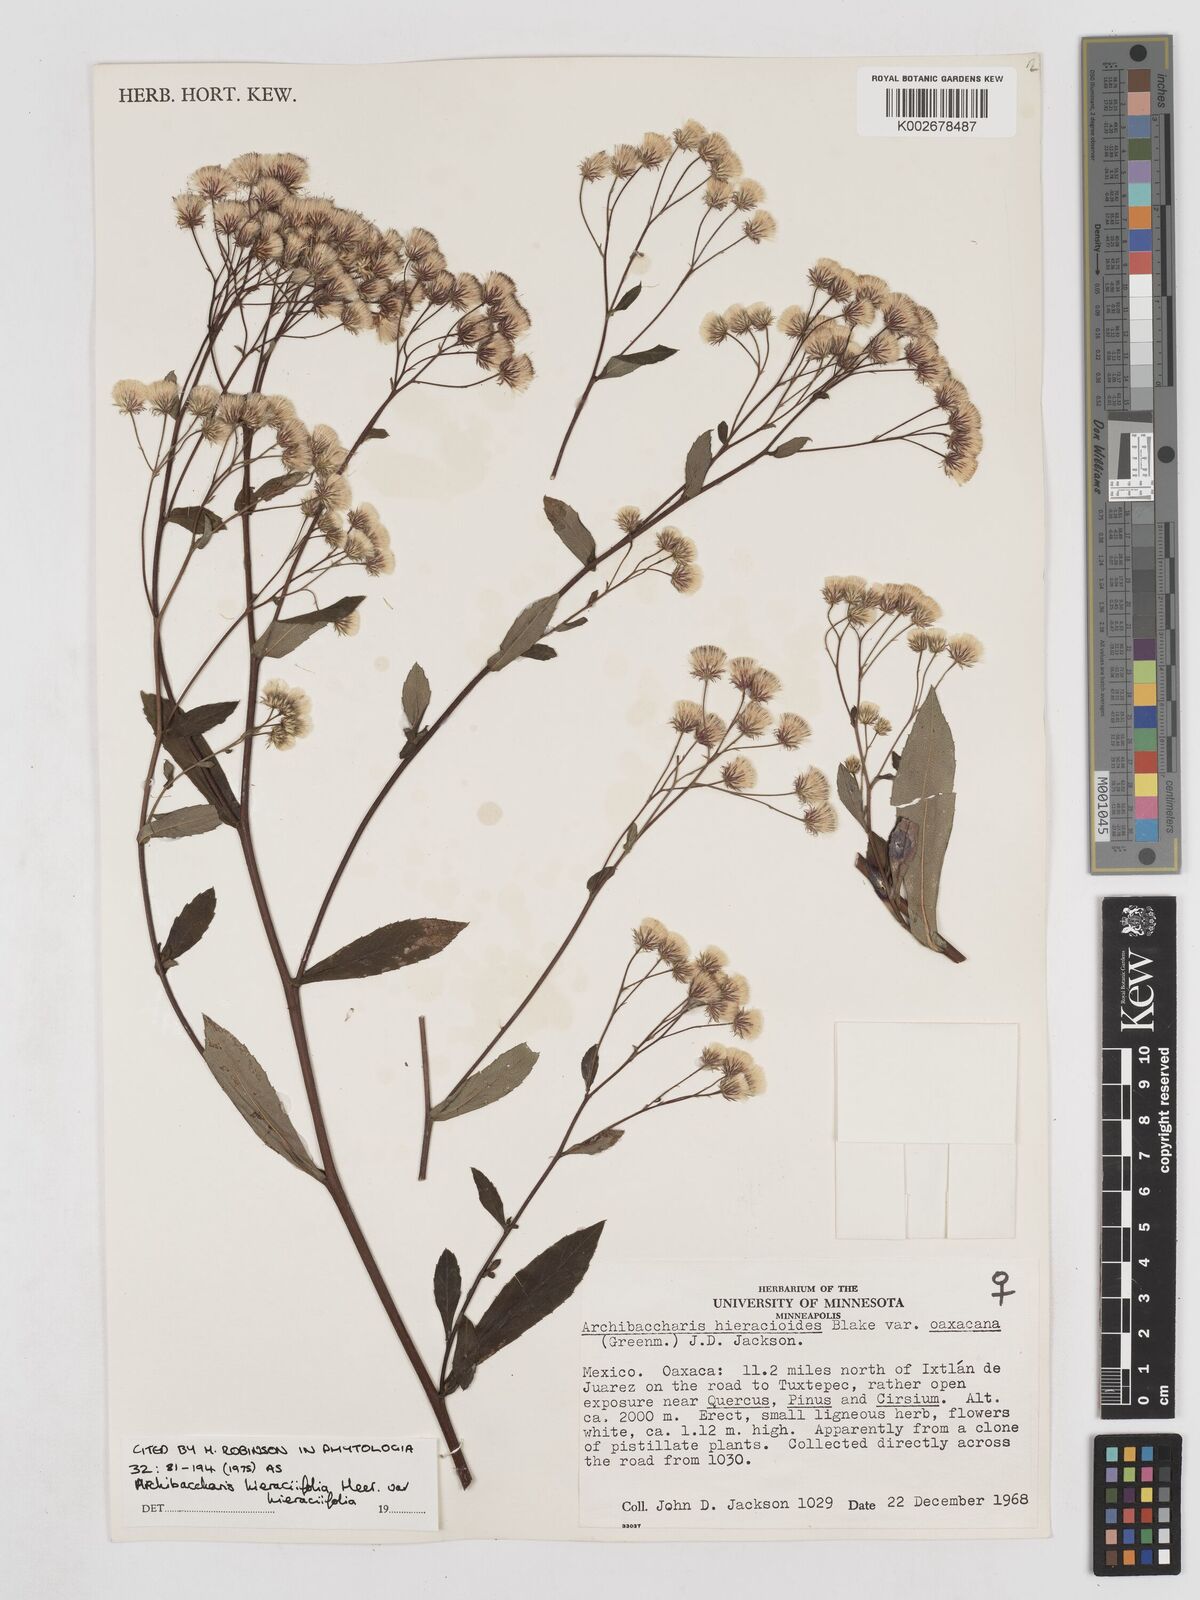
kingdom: Plantae
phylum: Tracheophyta
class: Magnoliopsida
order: Asterales
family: Asteraceae
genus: Archibaccharis
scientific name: Archibaccharis hieracioides
